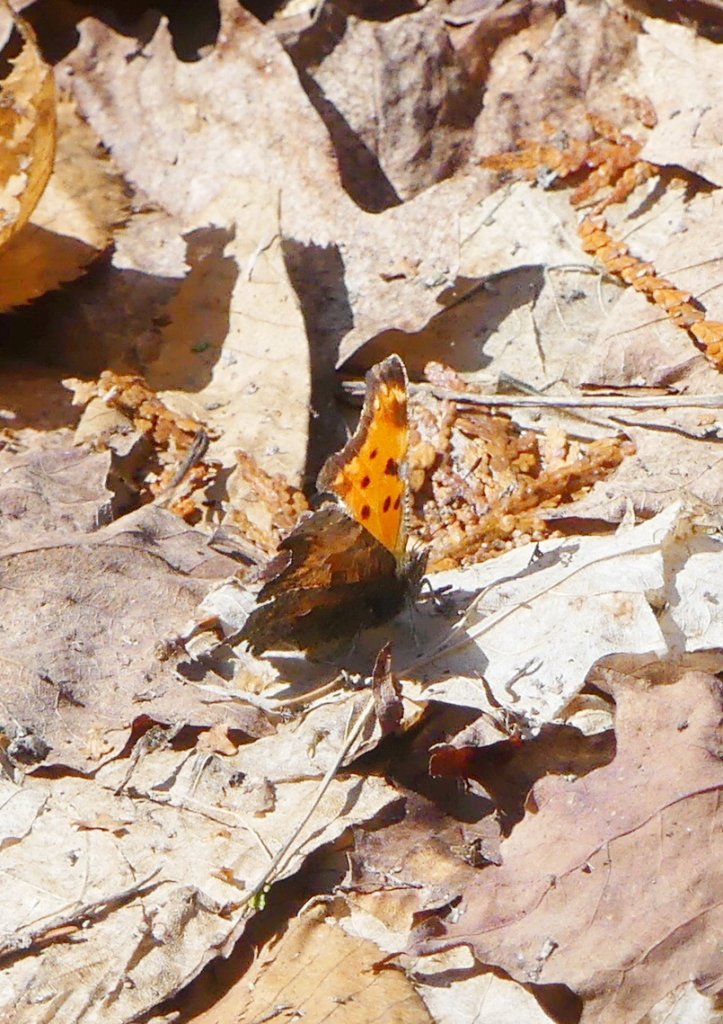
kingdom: Animalia
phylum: Arthropoda
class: Insecta
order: Lepidoptera
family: Nymphalidae
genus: Polygonia
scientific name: Polygonia progne
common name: Gray Comma
